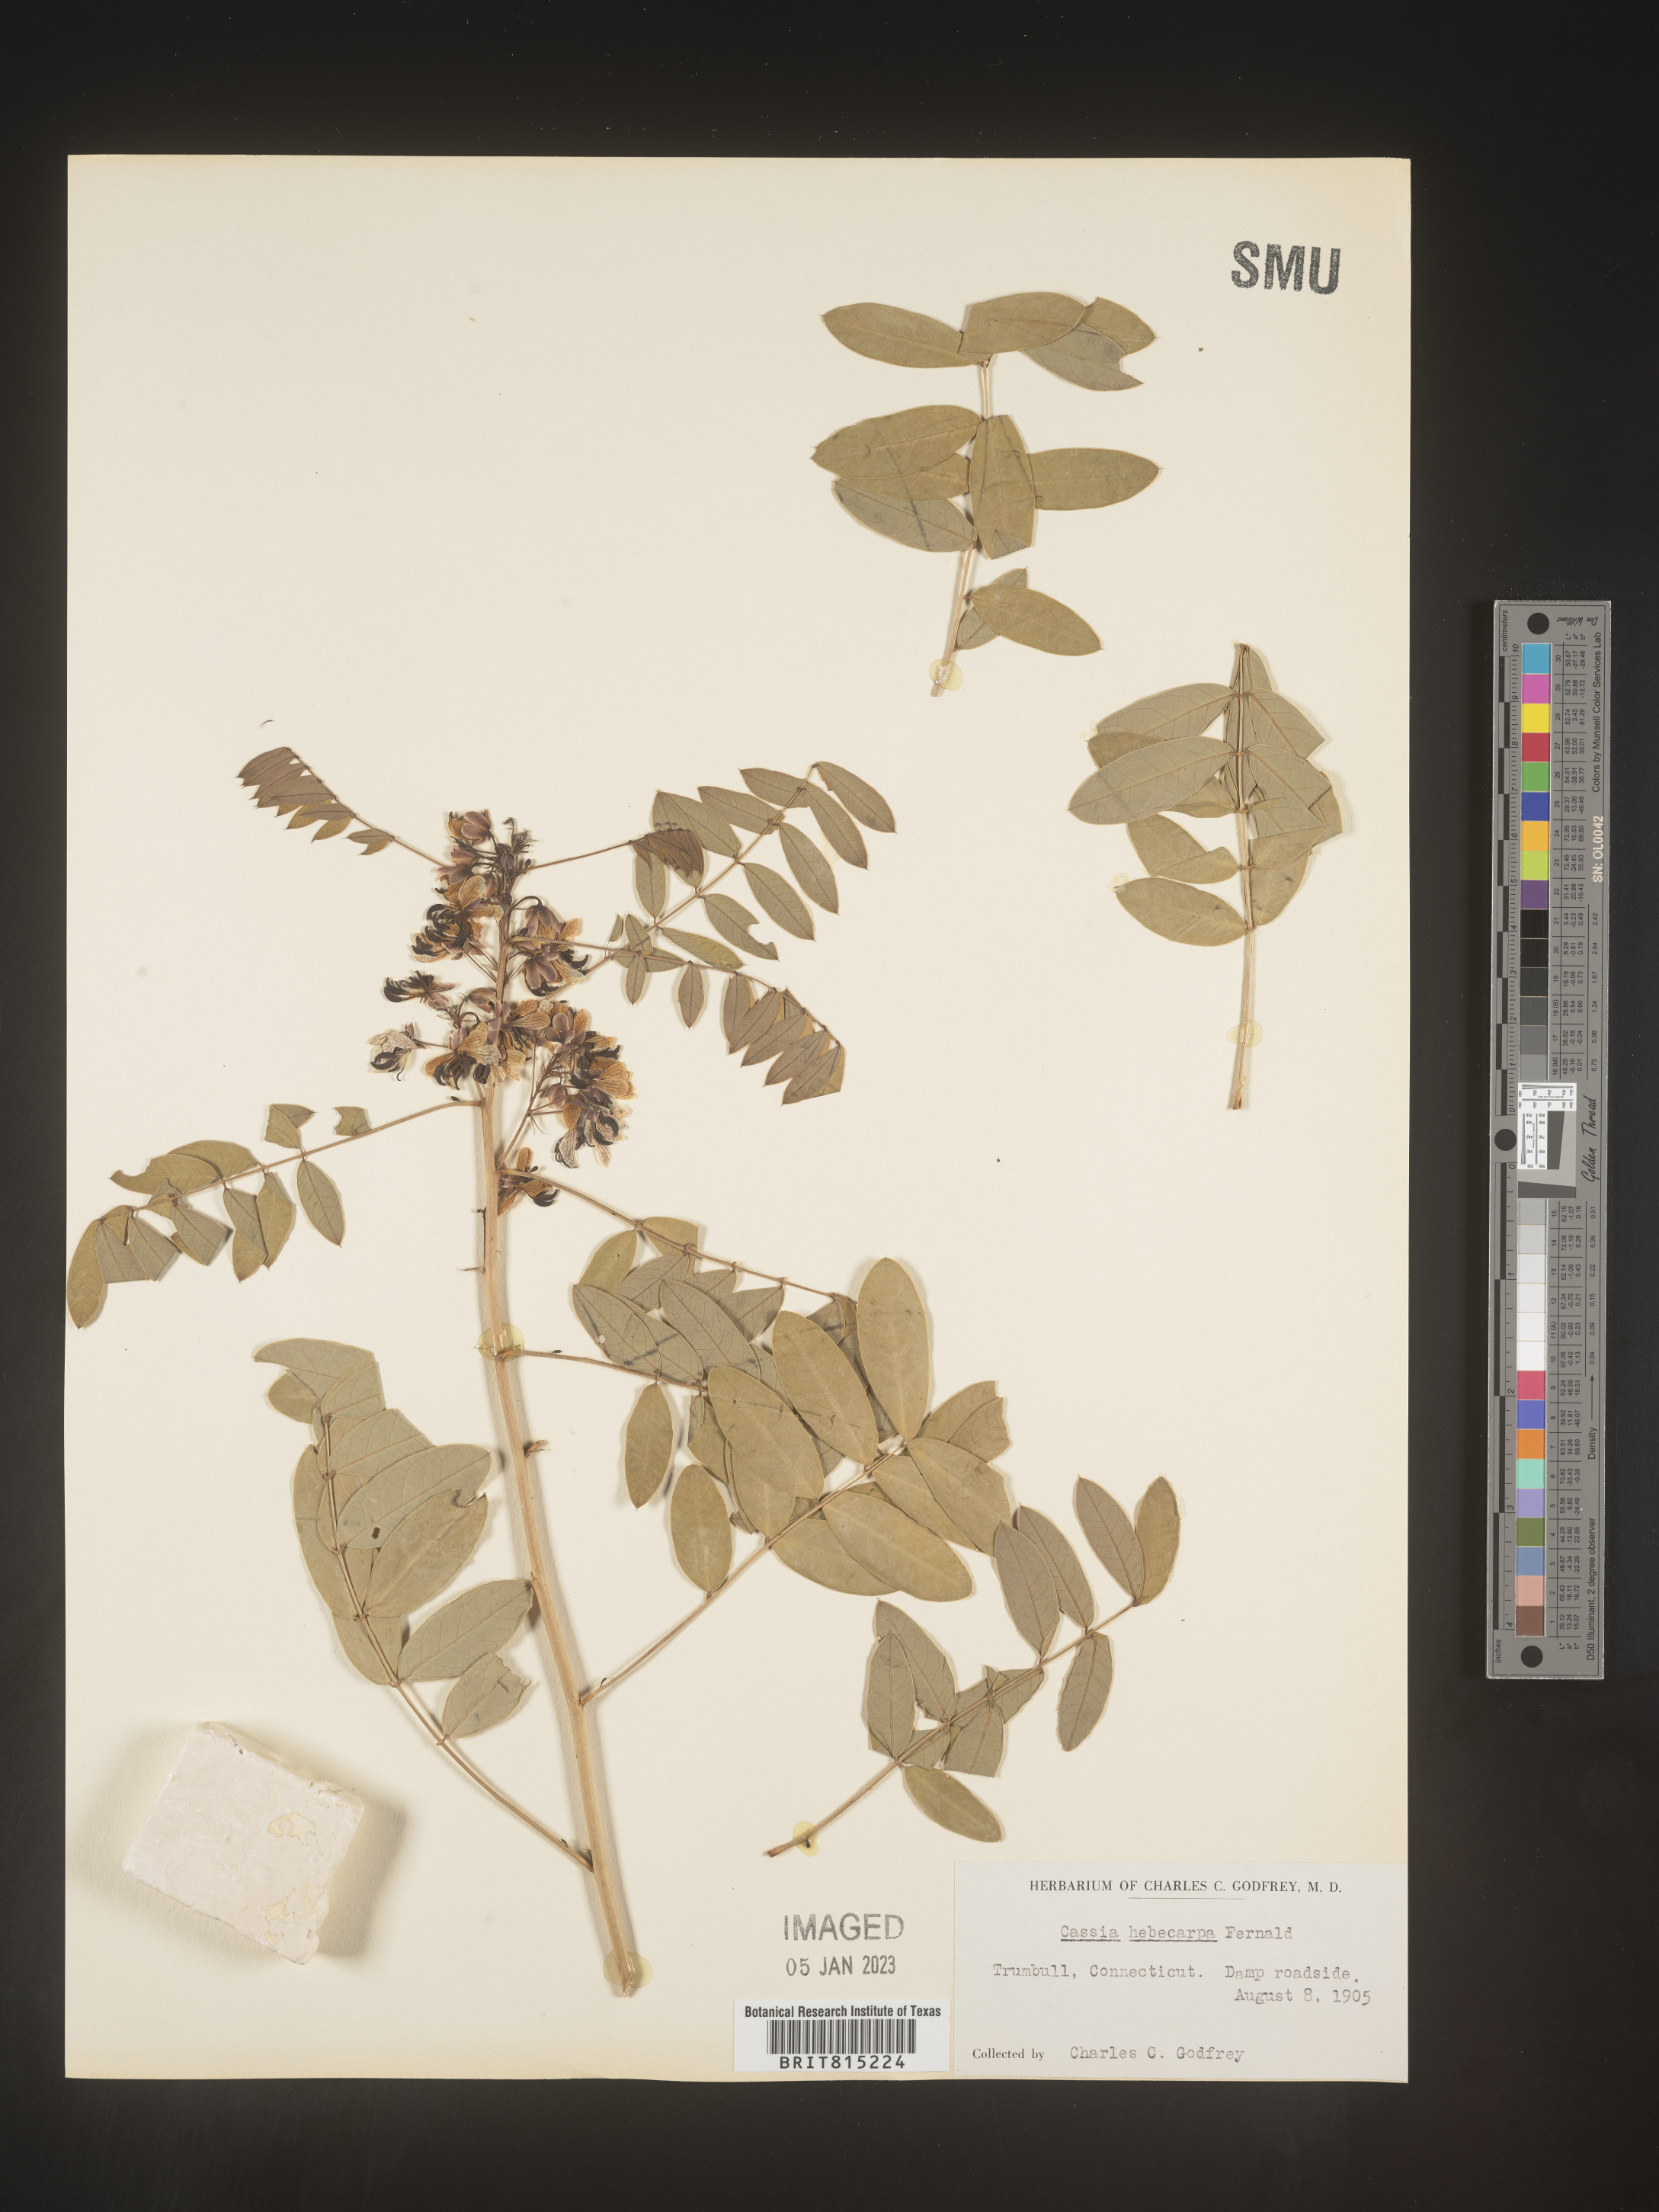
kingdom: Plantae
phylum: Tracheophyta
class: Magnoliopsida
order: Fabales
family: Fabaceae
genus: Senna
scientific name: Senna hebecarpa
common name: Wild senna
